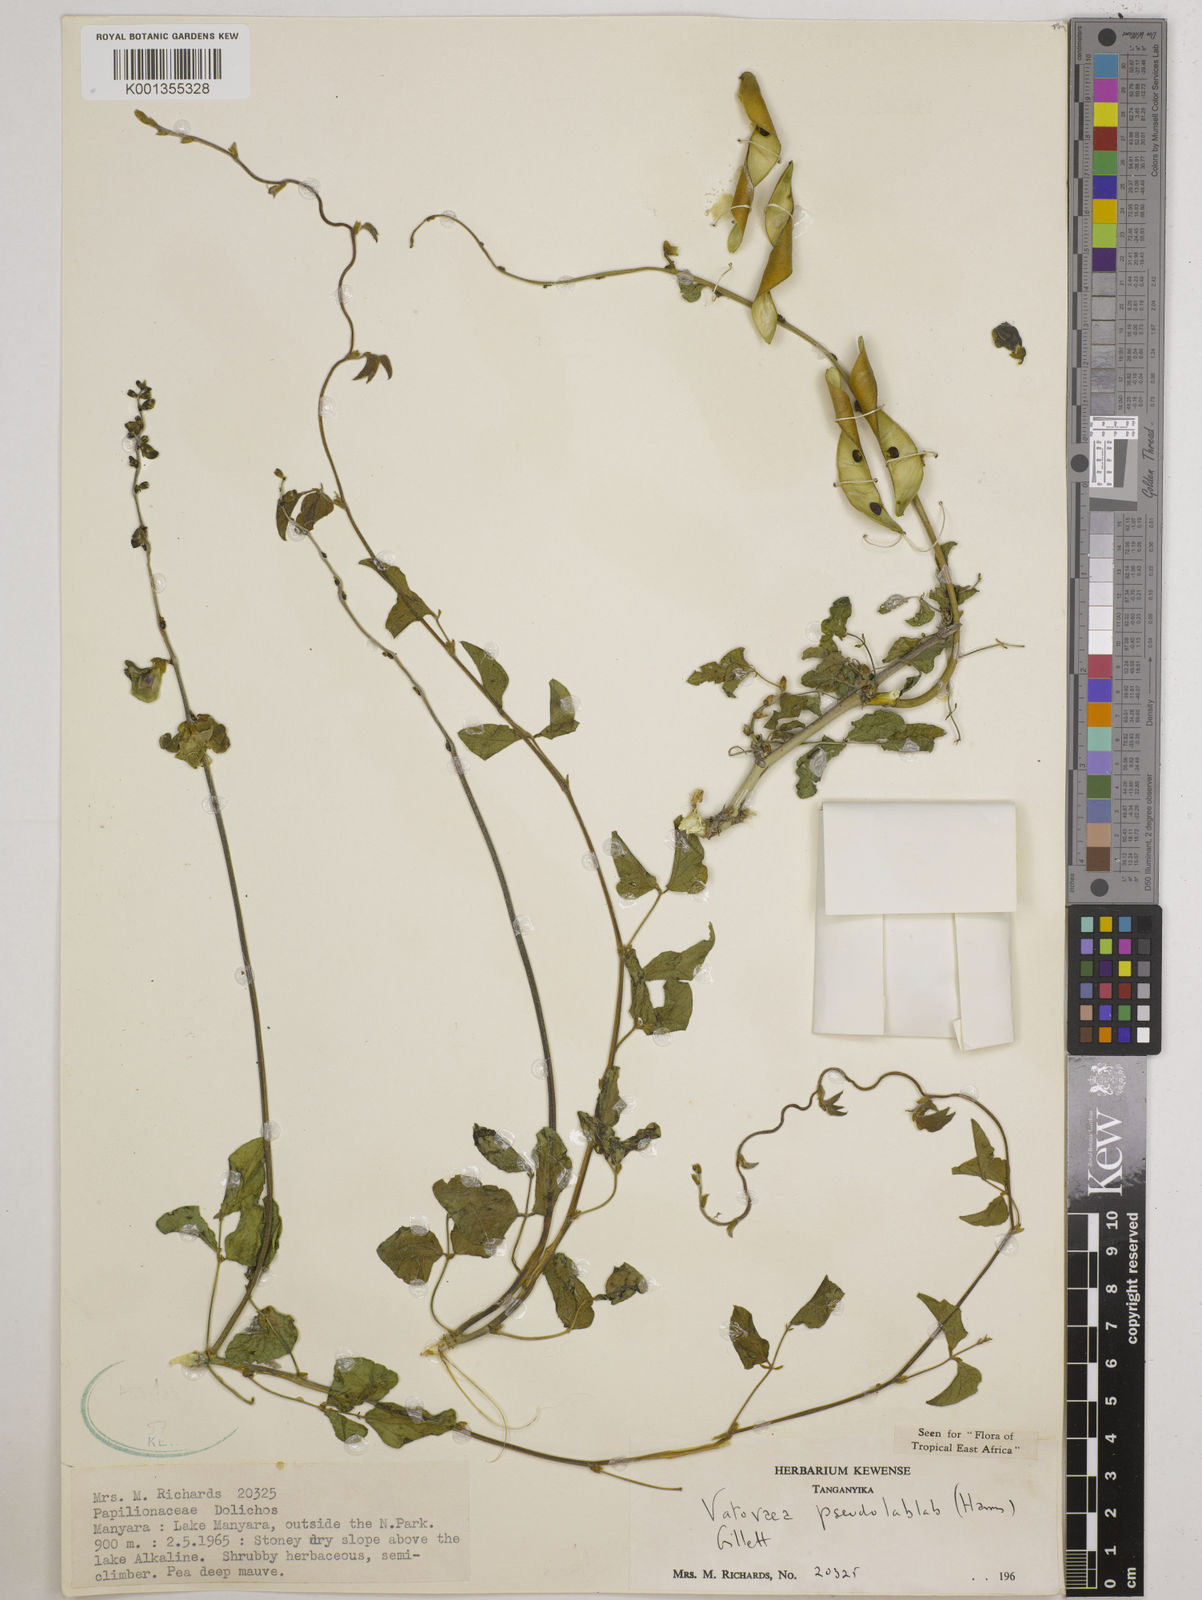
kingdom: Plantae
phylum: Tracheophyta
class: Magnoliopsida
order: Fabales
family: Fabaceae
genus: Vatovaea
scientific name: Vatovaea pseudolablab
